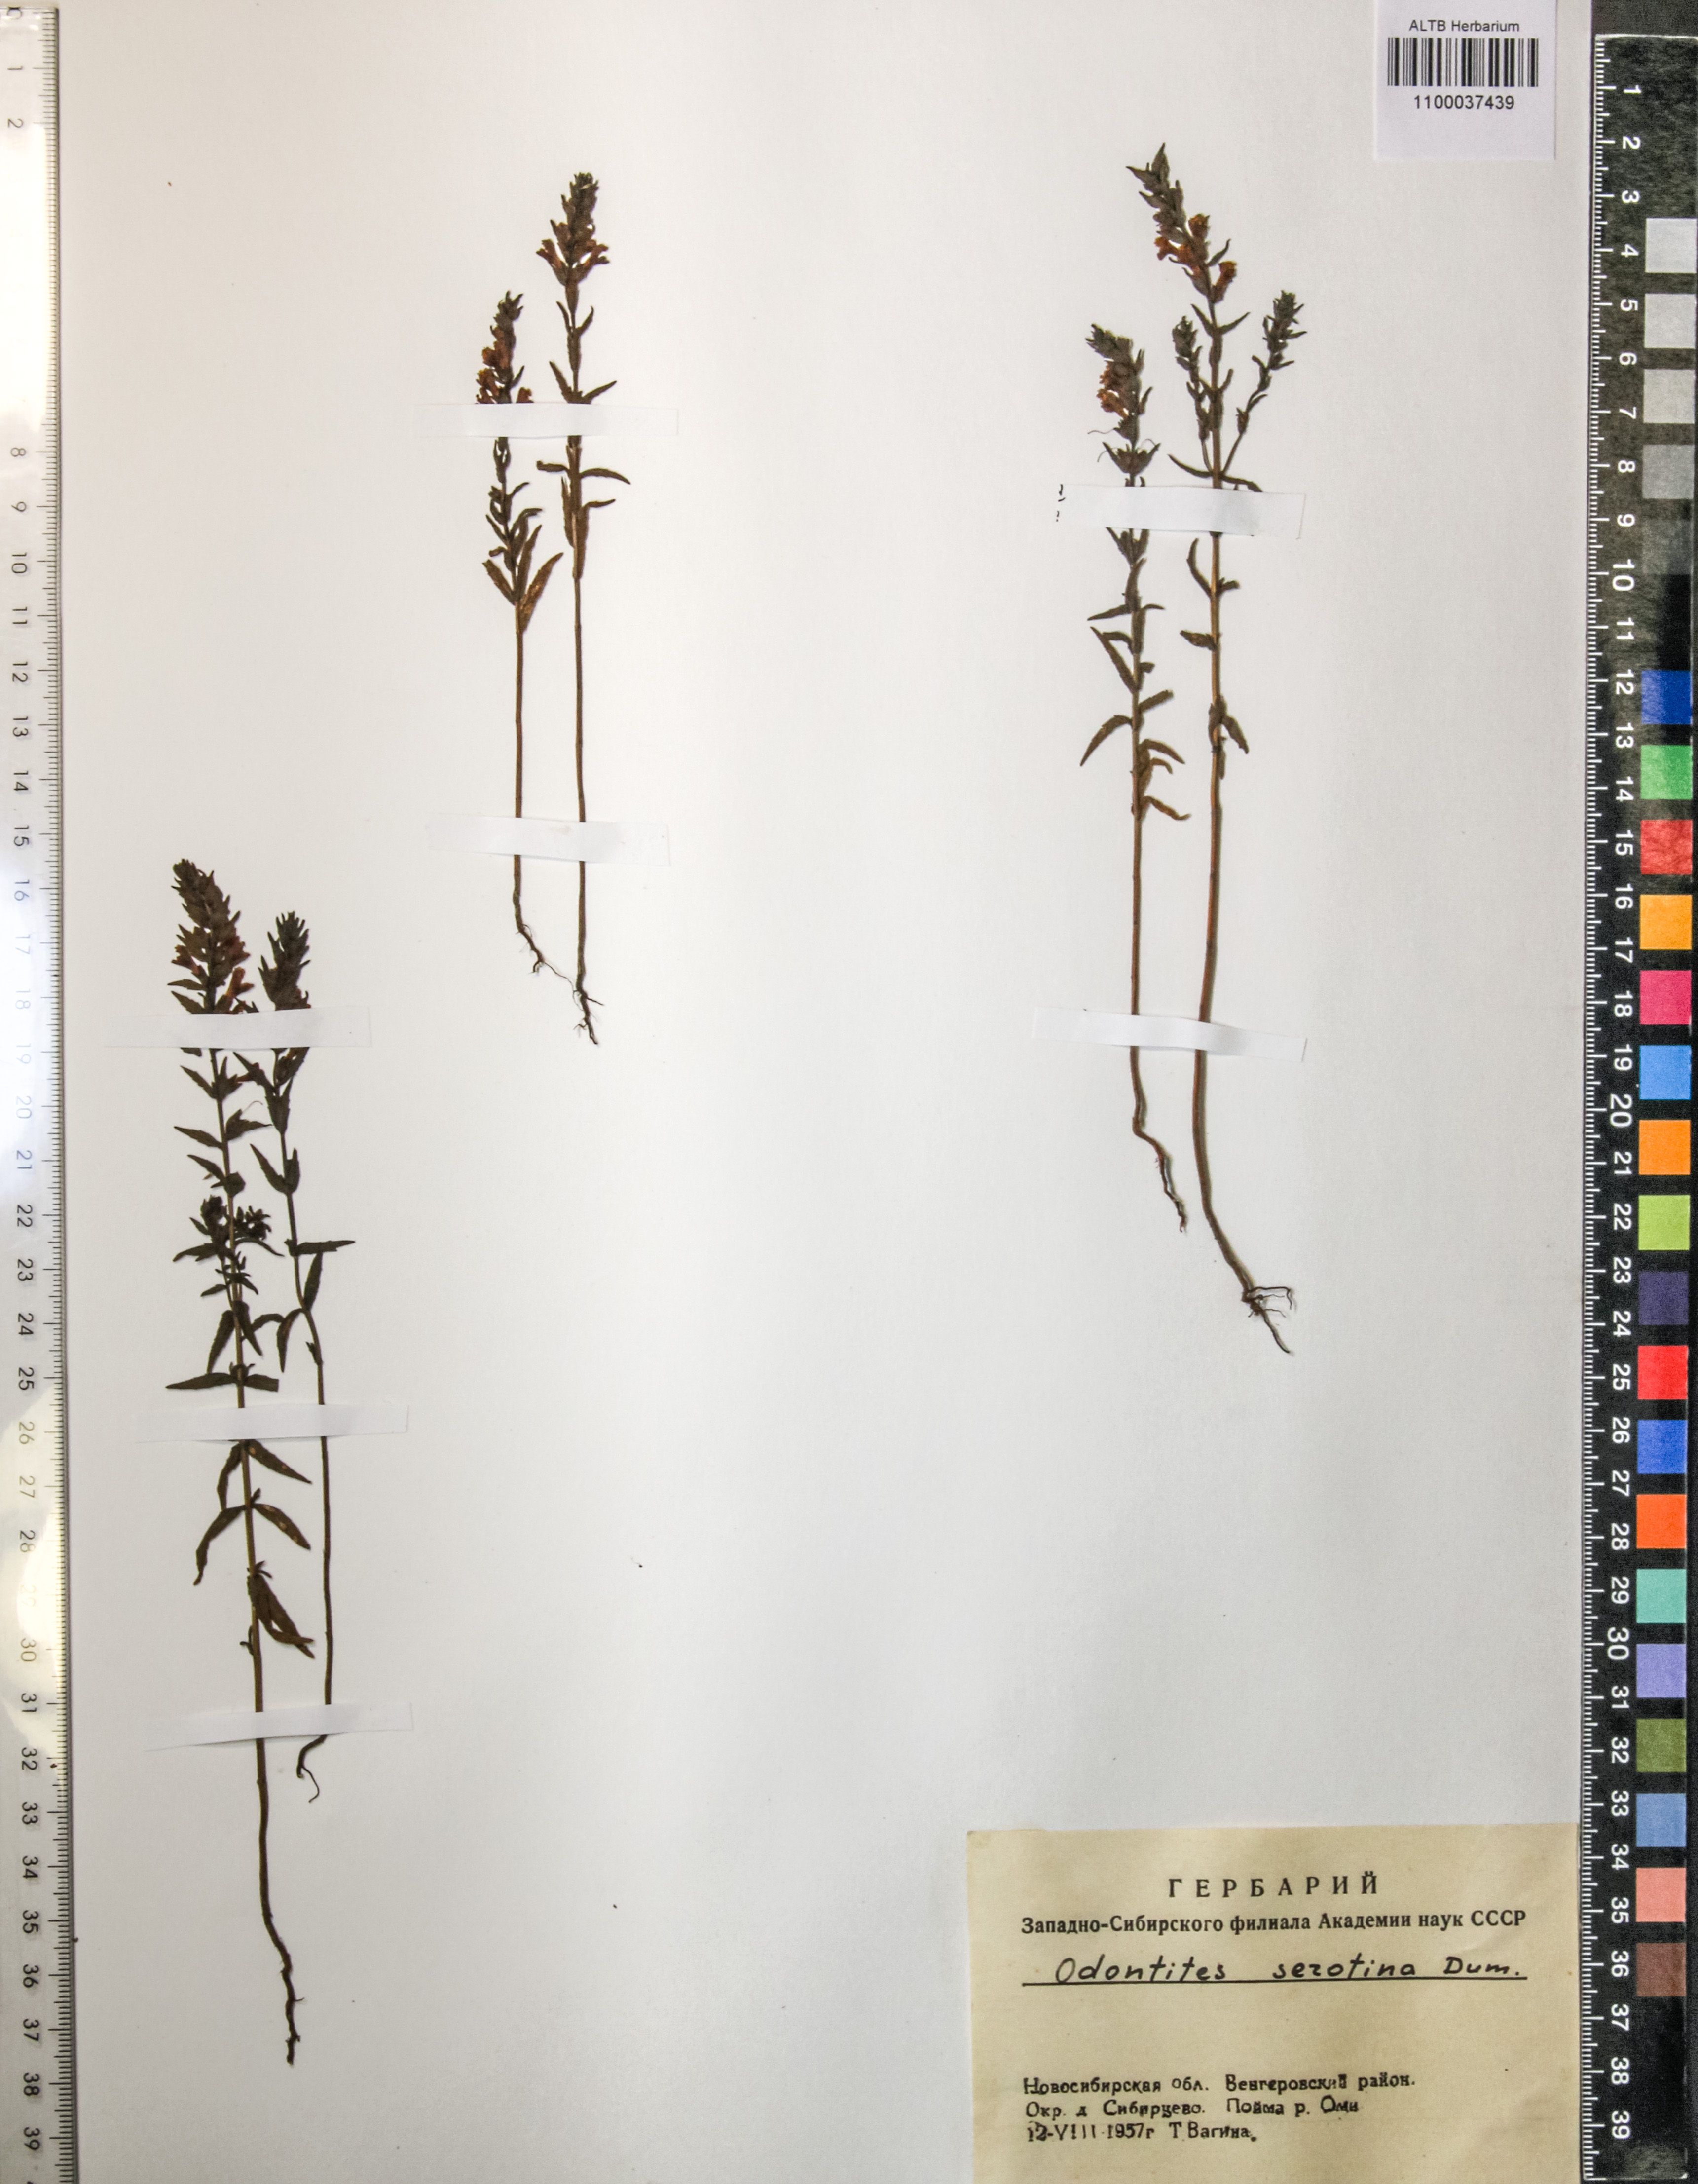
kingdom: Plantae
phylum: Tracheophyta
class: Magnoliopsida
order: Lamiales
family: Orobanchaceae
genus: Odontites
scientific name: Odontites vulgaris
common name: Broomrape
